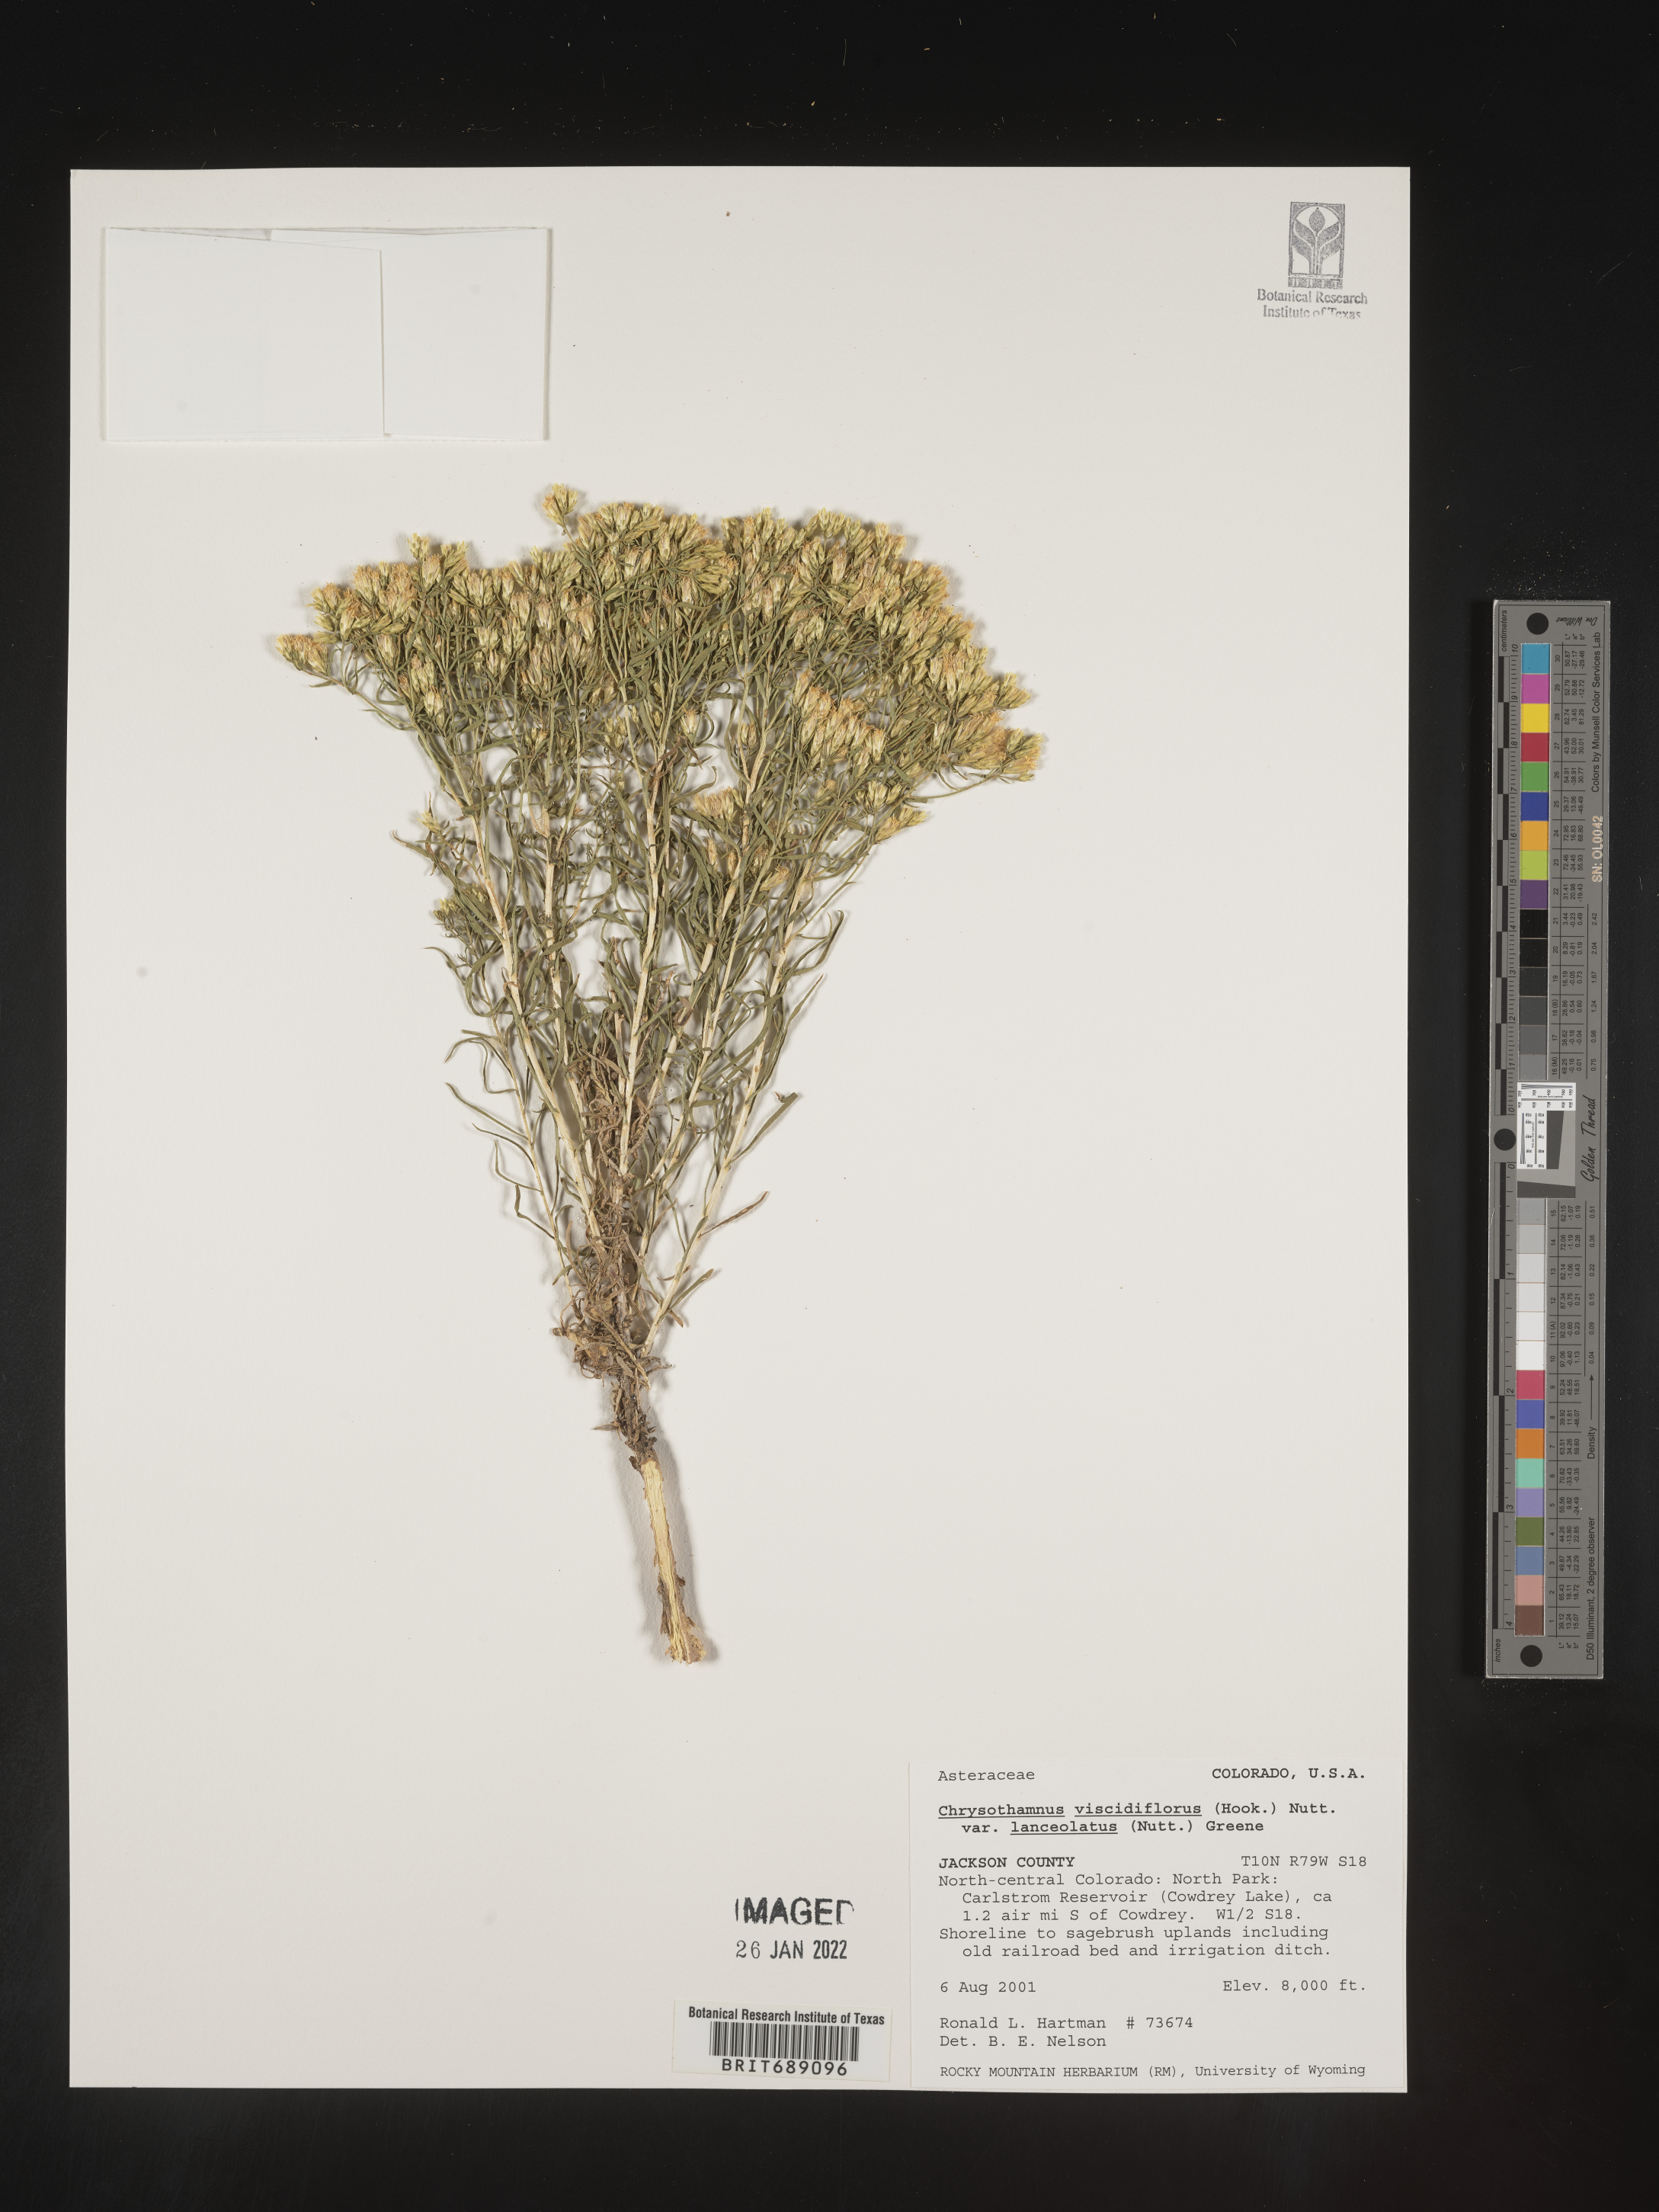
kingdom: Plantae
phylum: Tracheophyta
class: Magnoliopsida
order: Asterales
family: Asteraceae
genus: Chrysothamnus
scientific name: Chrysothamnus viscidiflorus
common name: Yellow rabbitbrush
